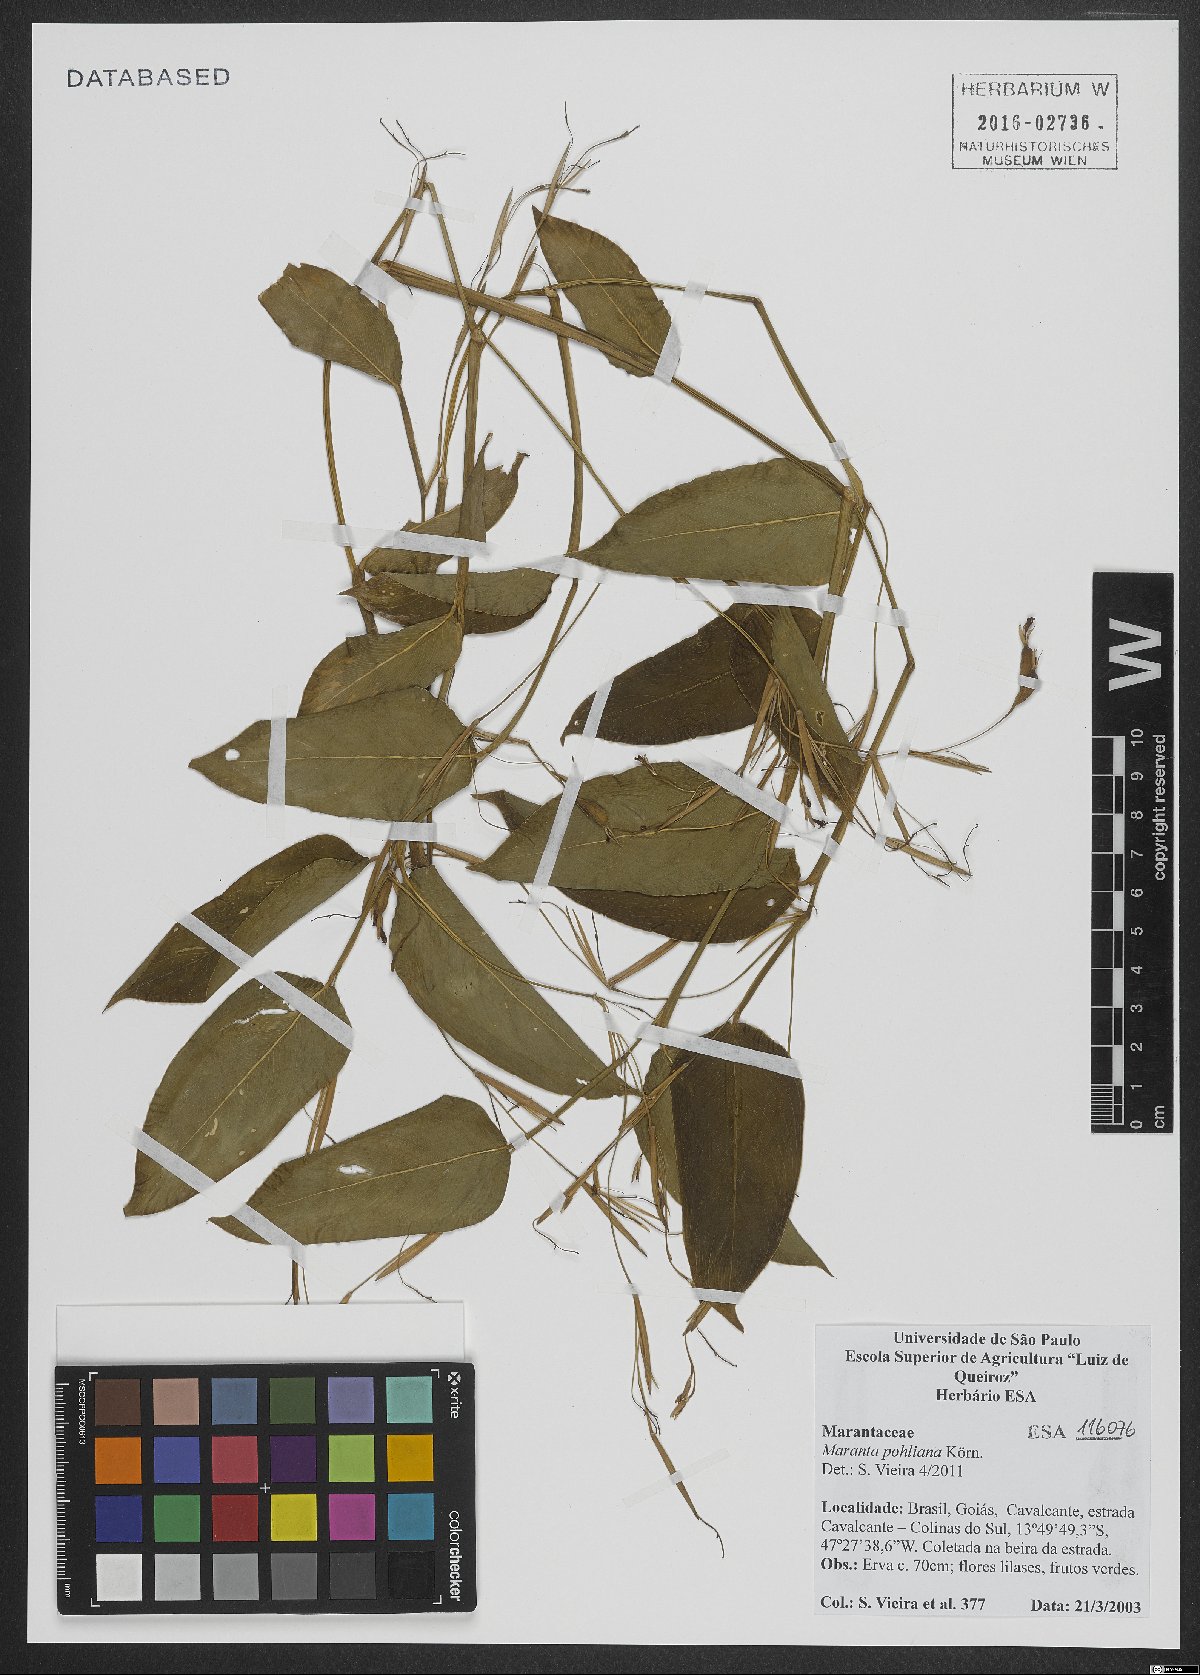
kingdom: Plantae
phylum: Tracheophyta
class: Liliopsida
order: Zingiberales
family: Marantaceae
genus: Maranta
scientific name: Maranta pohliana
